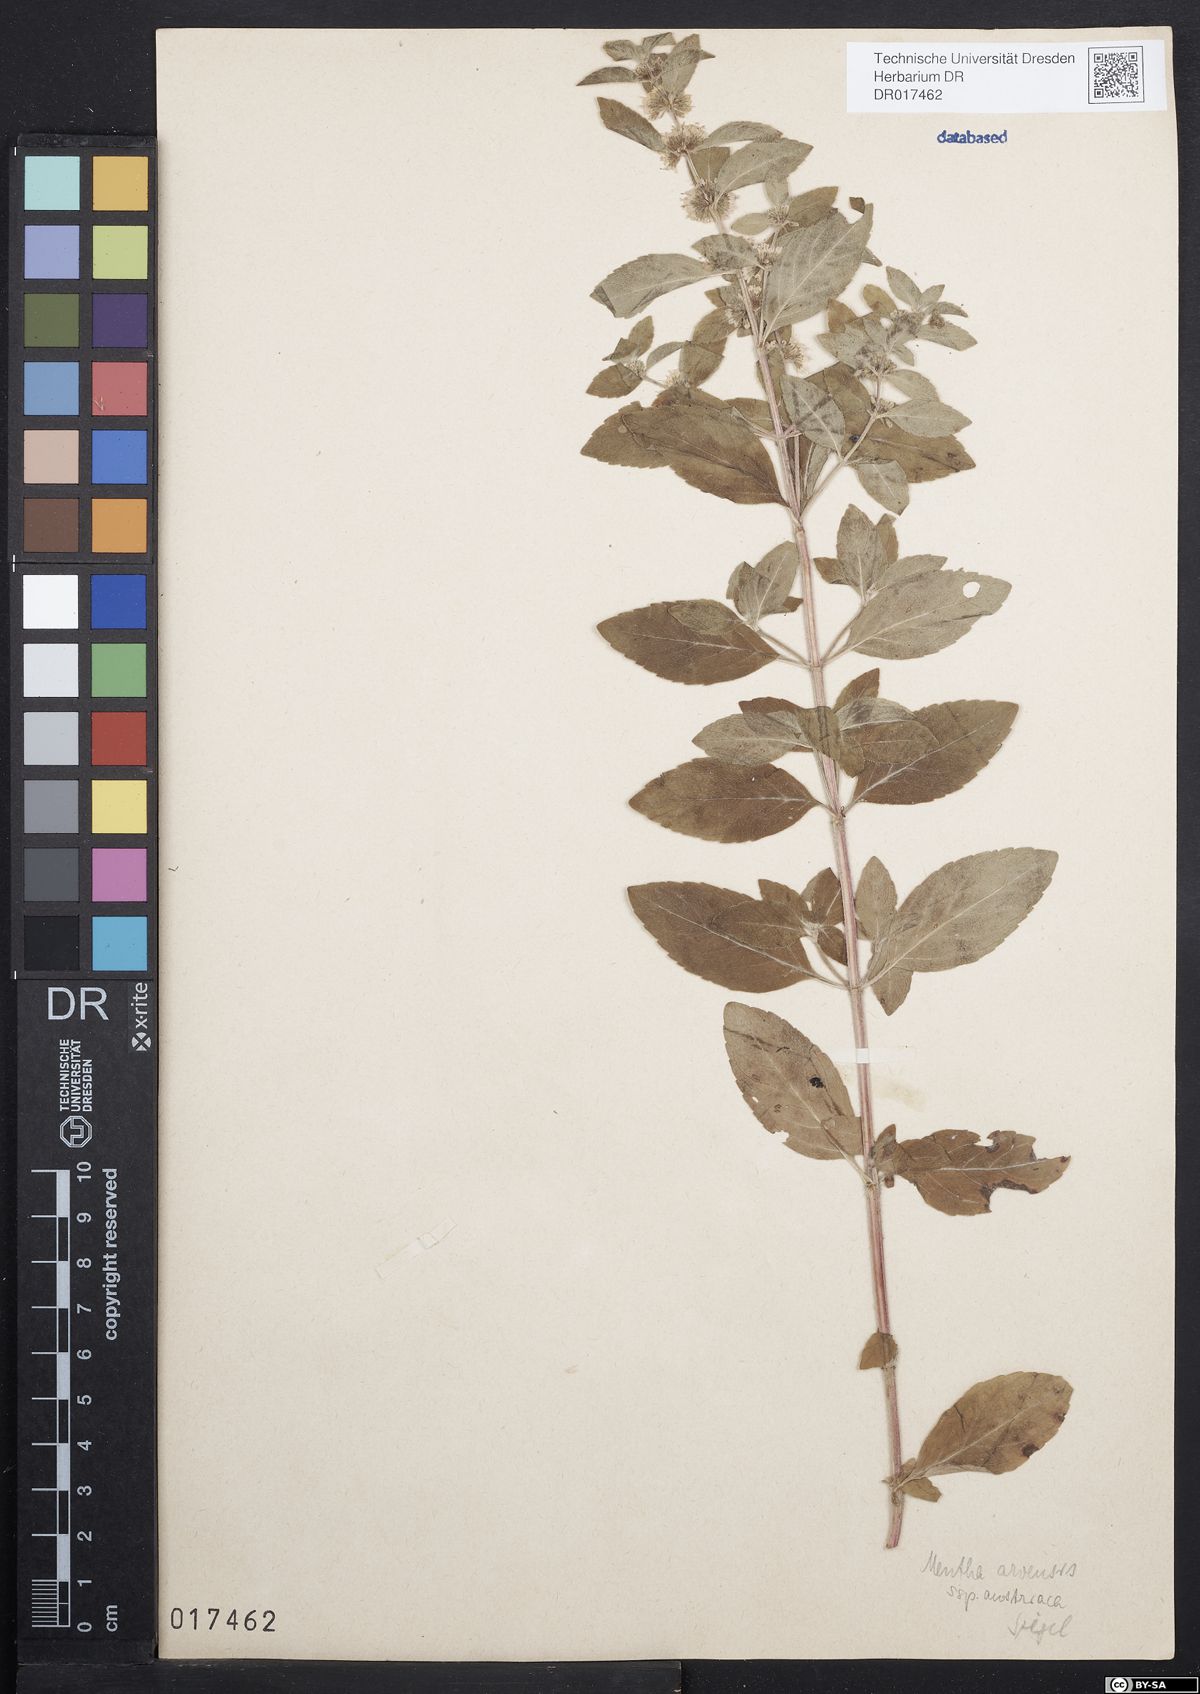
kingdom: Plantae
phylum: Tracheophyta
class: Magnoliopsida
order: Lamiales
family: Lamiaceae
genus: Mentha
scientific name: Mentha arvensis
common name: Corn mint
